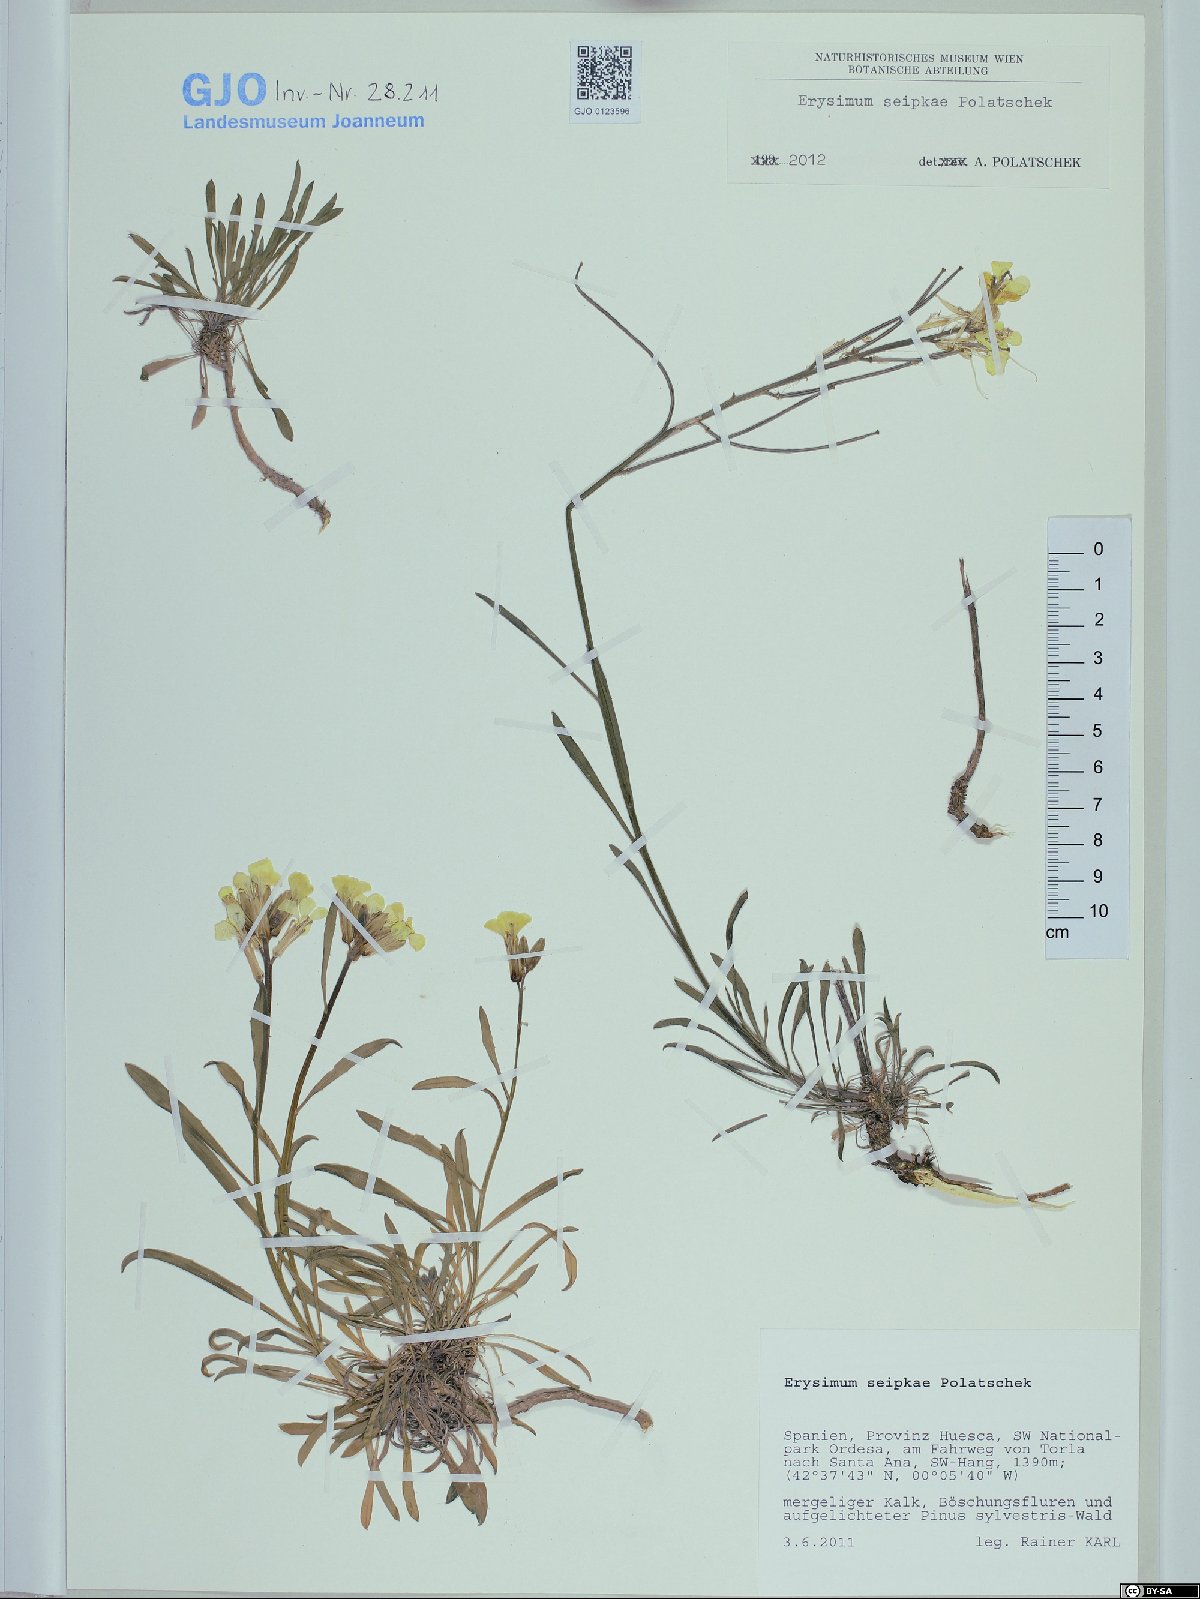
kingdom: Plantae
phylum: Tracheophyta
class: Magnoliopsida
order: Brassicales
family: Brassicaceae
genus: Erysimum
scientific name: Erysimum seipkae
